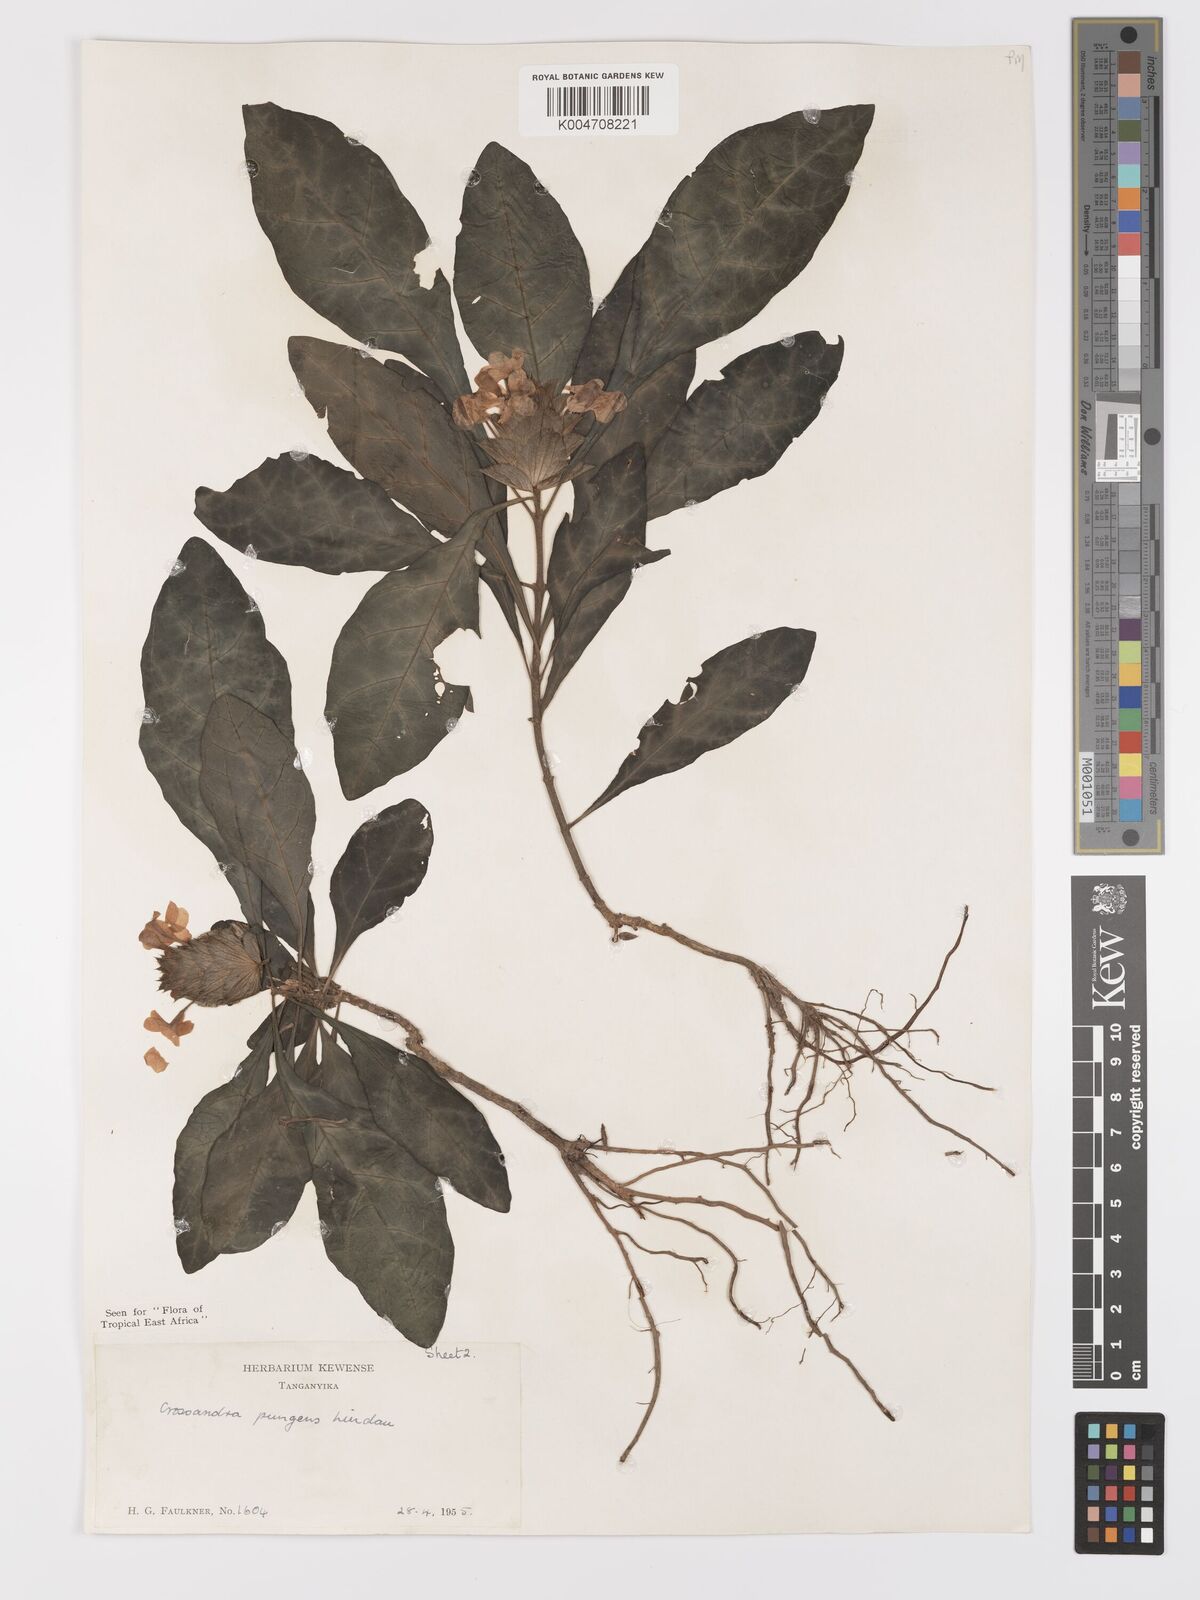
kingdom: Plantae
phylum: Tracheophyta
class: Magnoliopsida
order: Lamiales
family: Acanthaceae
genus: Crossandra
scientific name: Crossandra pungens
